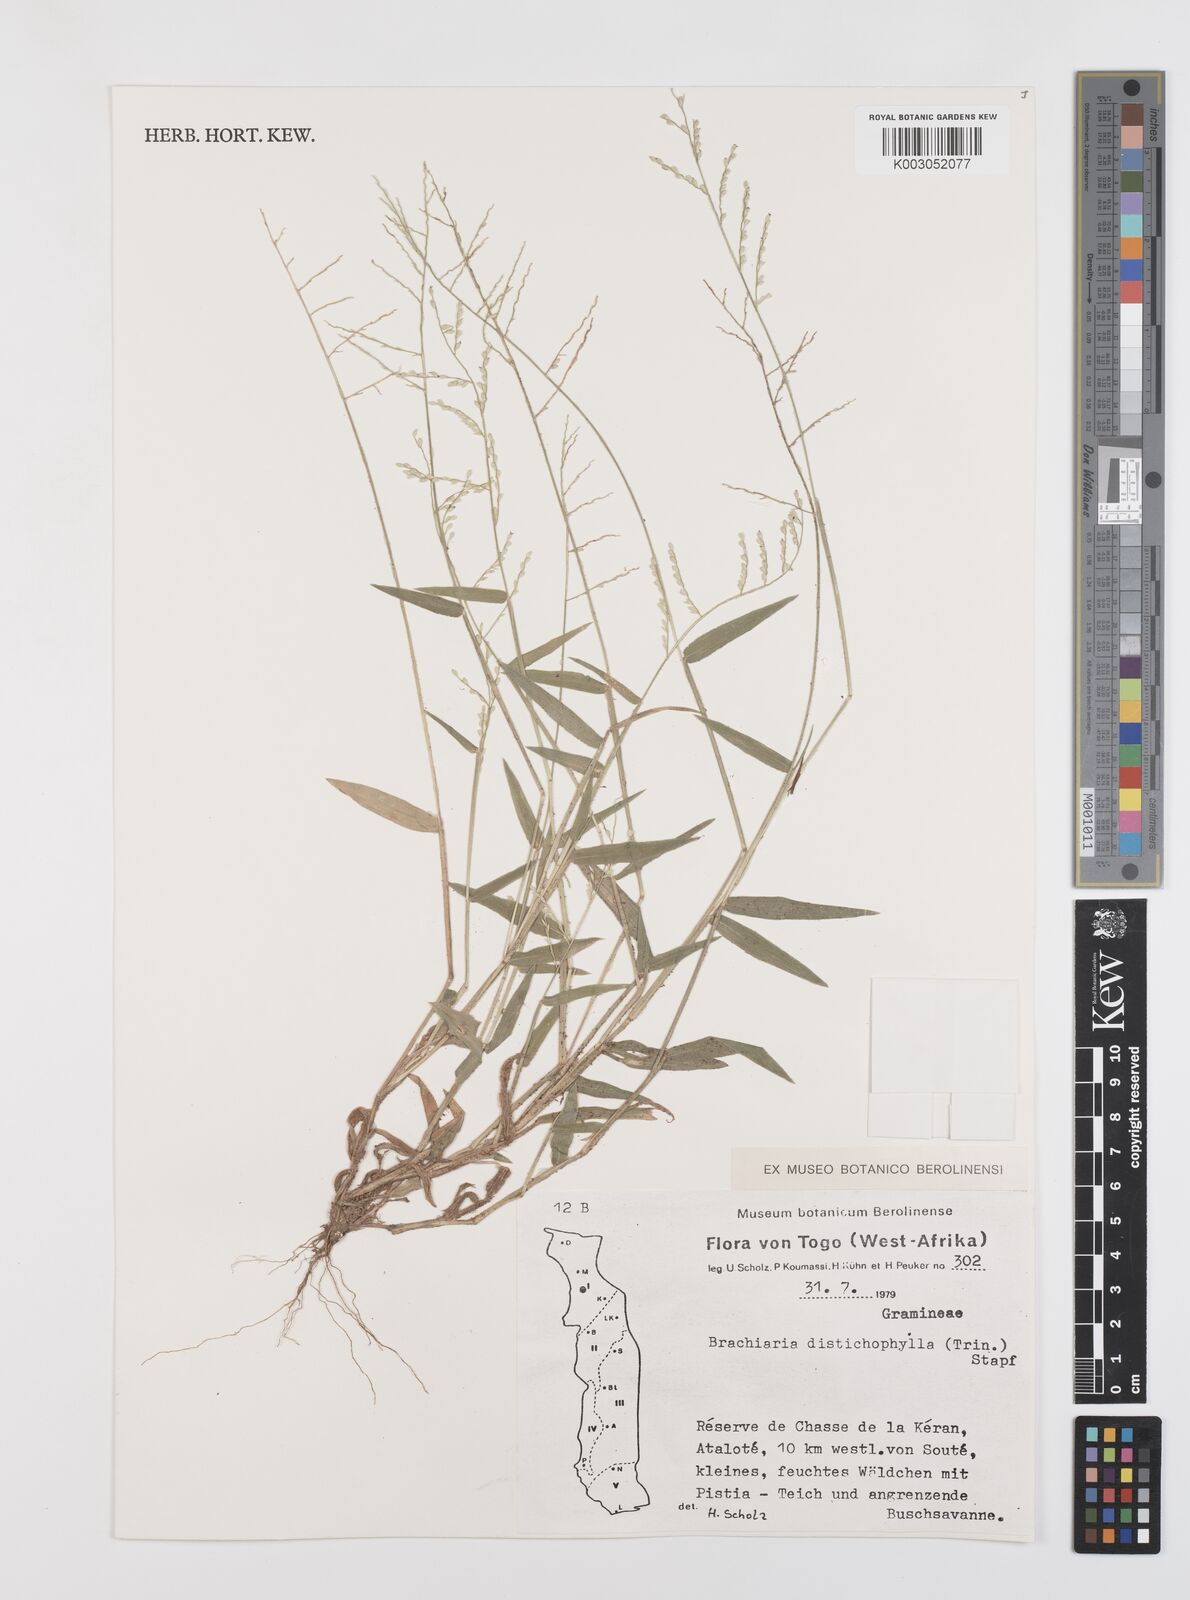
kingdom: Plantae
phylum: Tracheophyta
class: Liliopsida
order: Poales
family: Poaceae
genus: Urochloa
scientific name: Urochloa villosa
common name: Hairy signalgrass
